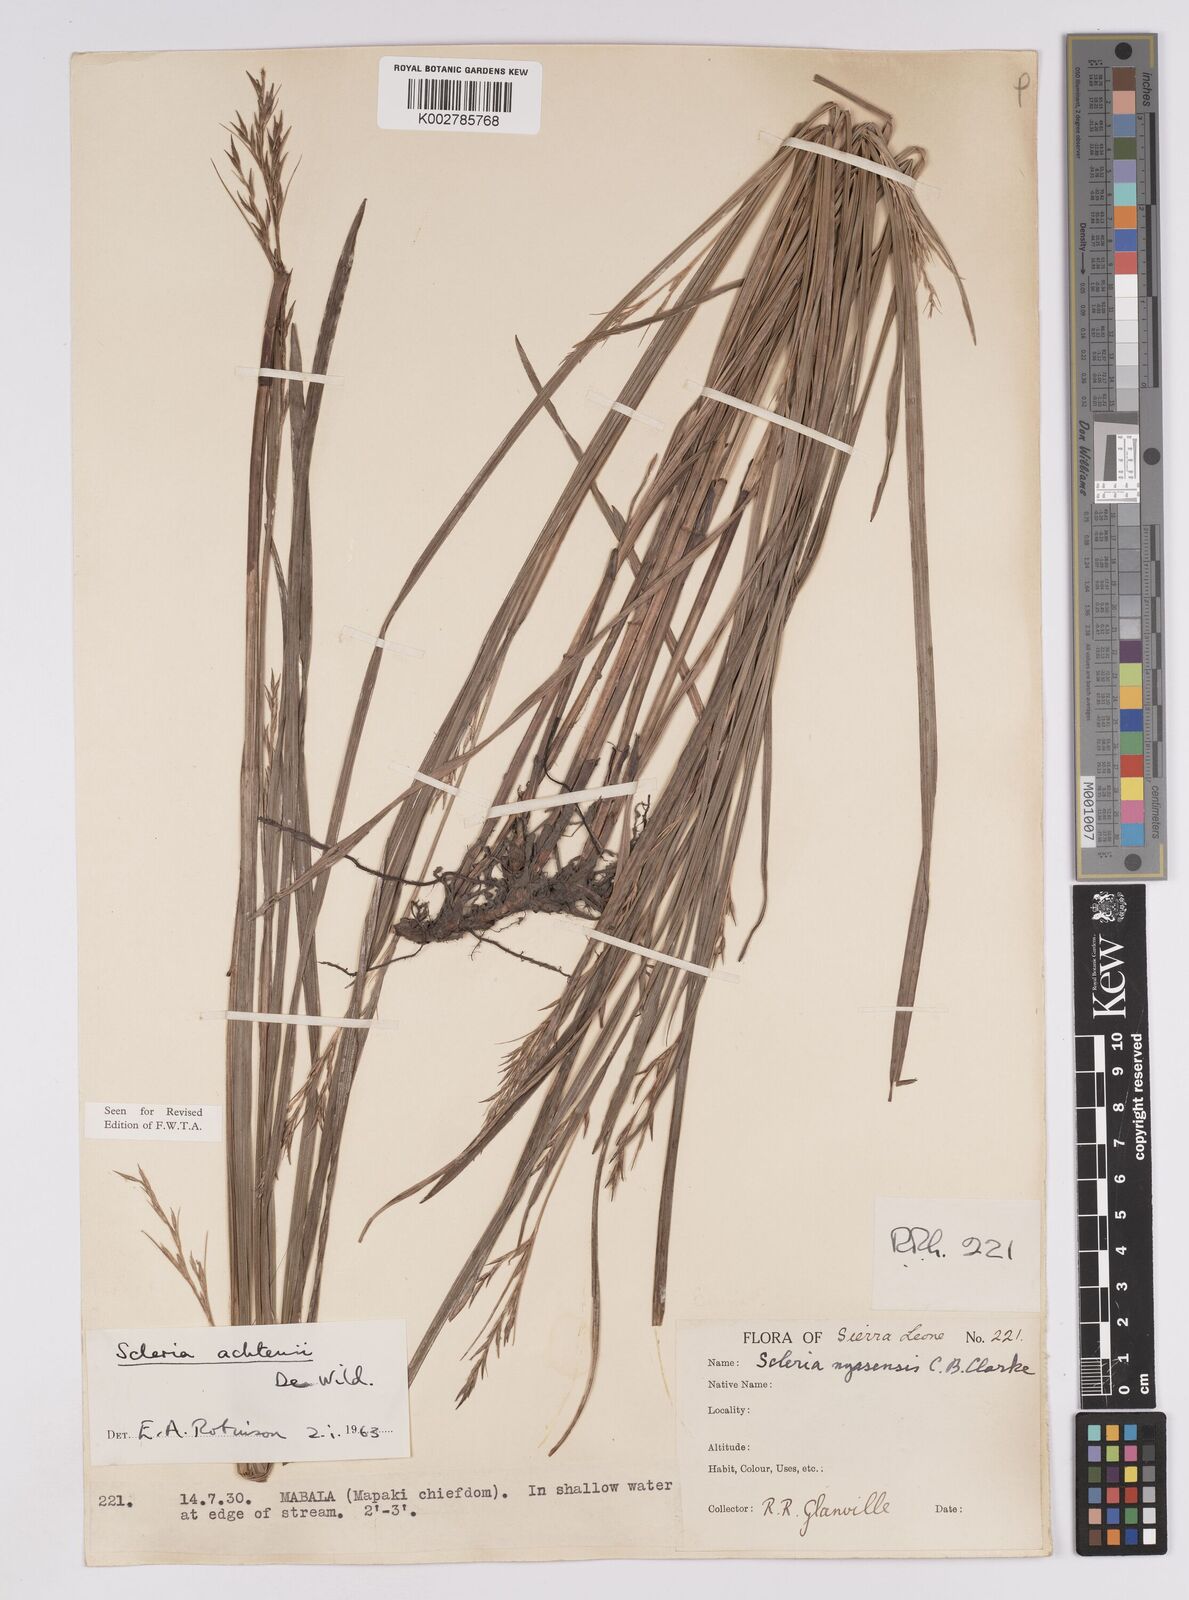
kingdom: Plantae
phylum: Tracheophyta
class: Liliopsida
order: Poales
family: Cyperaceae
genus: Scleria
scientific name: Scleria achtenii
